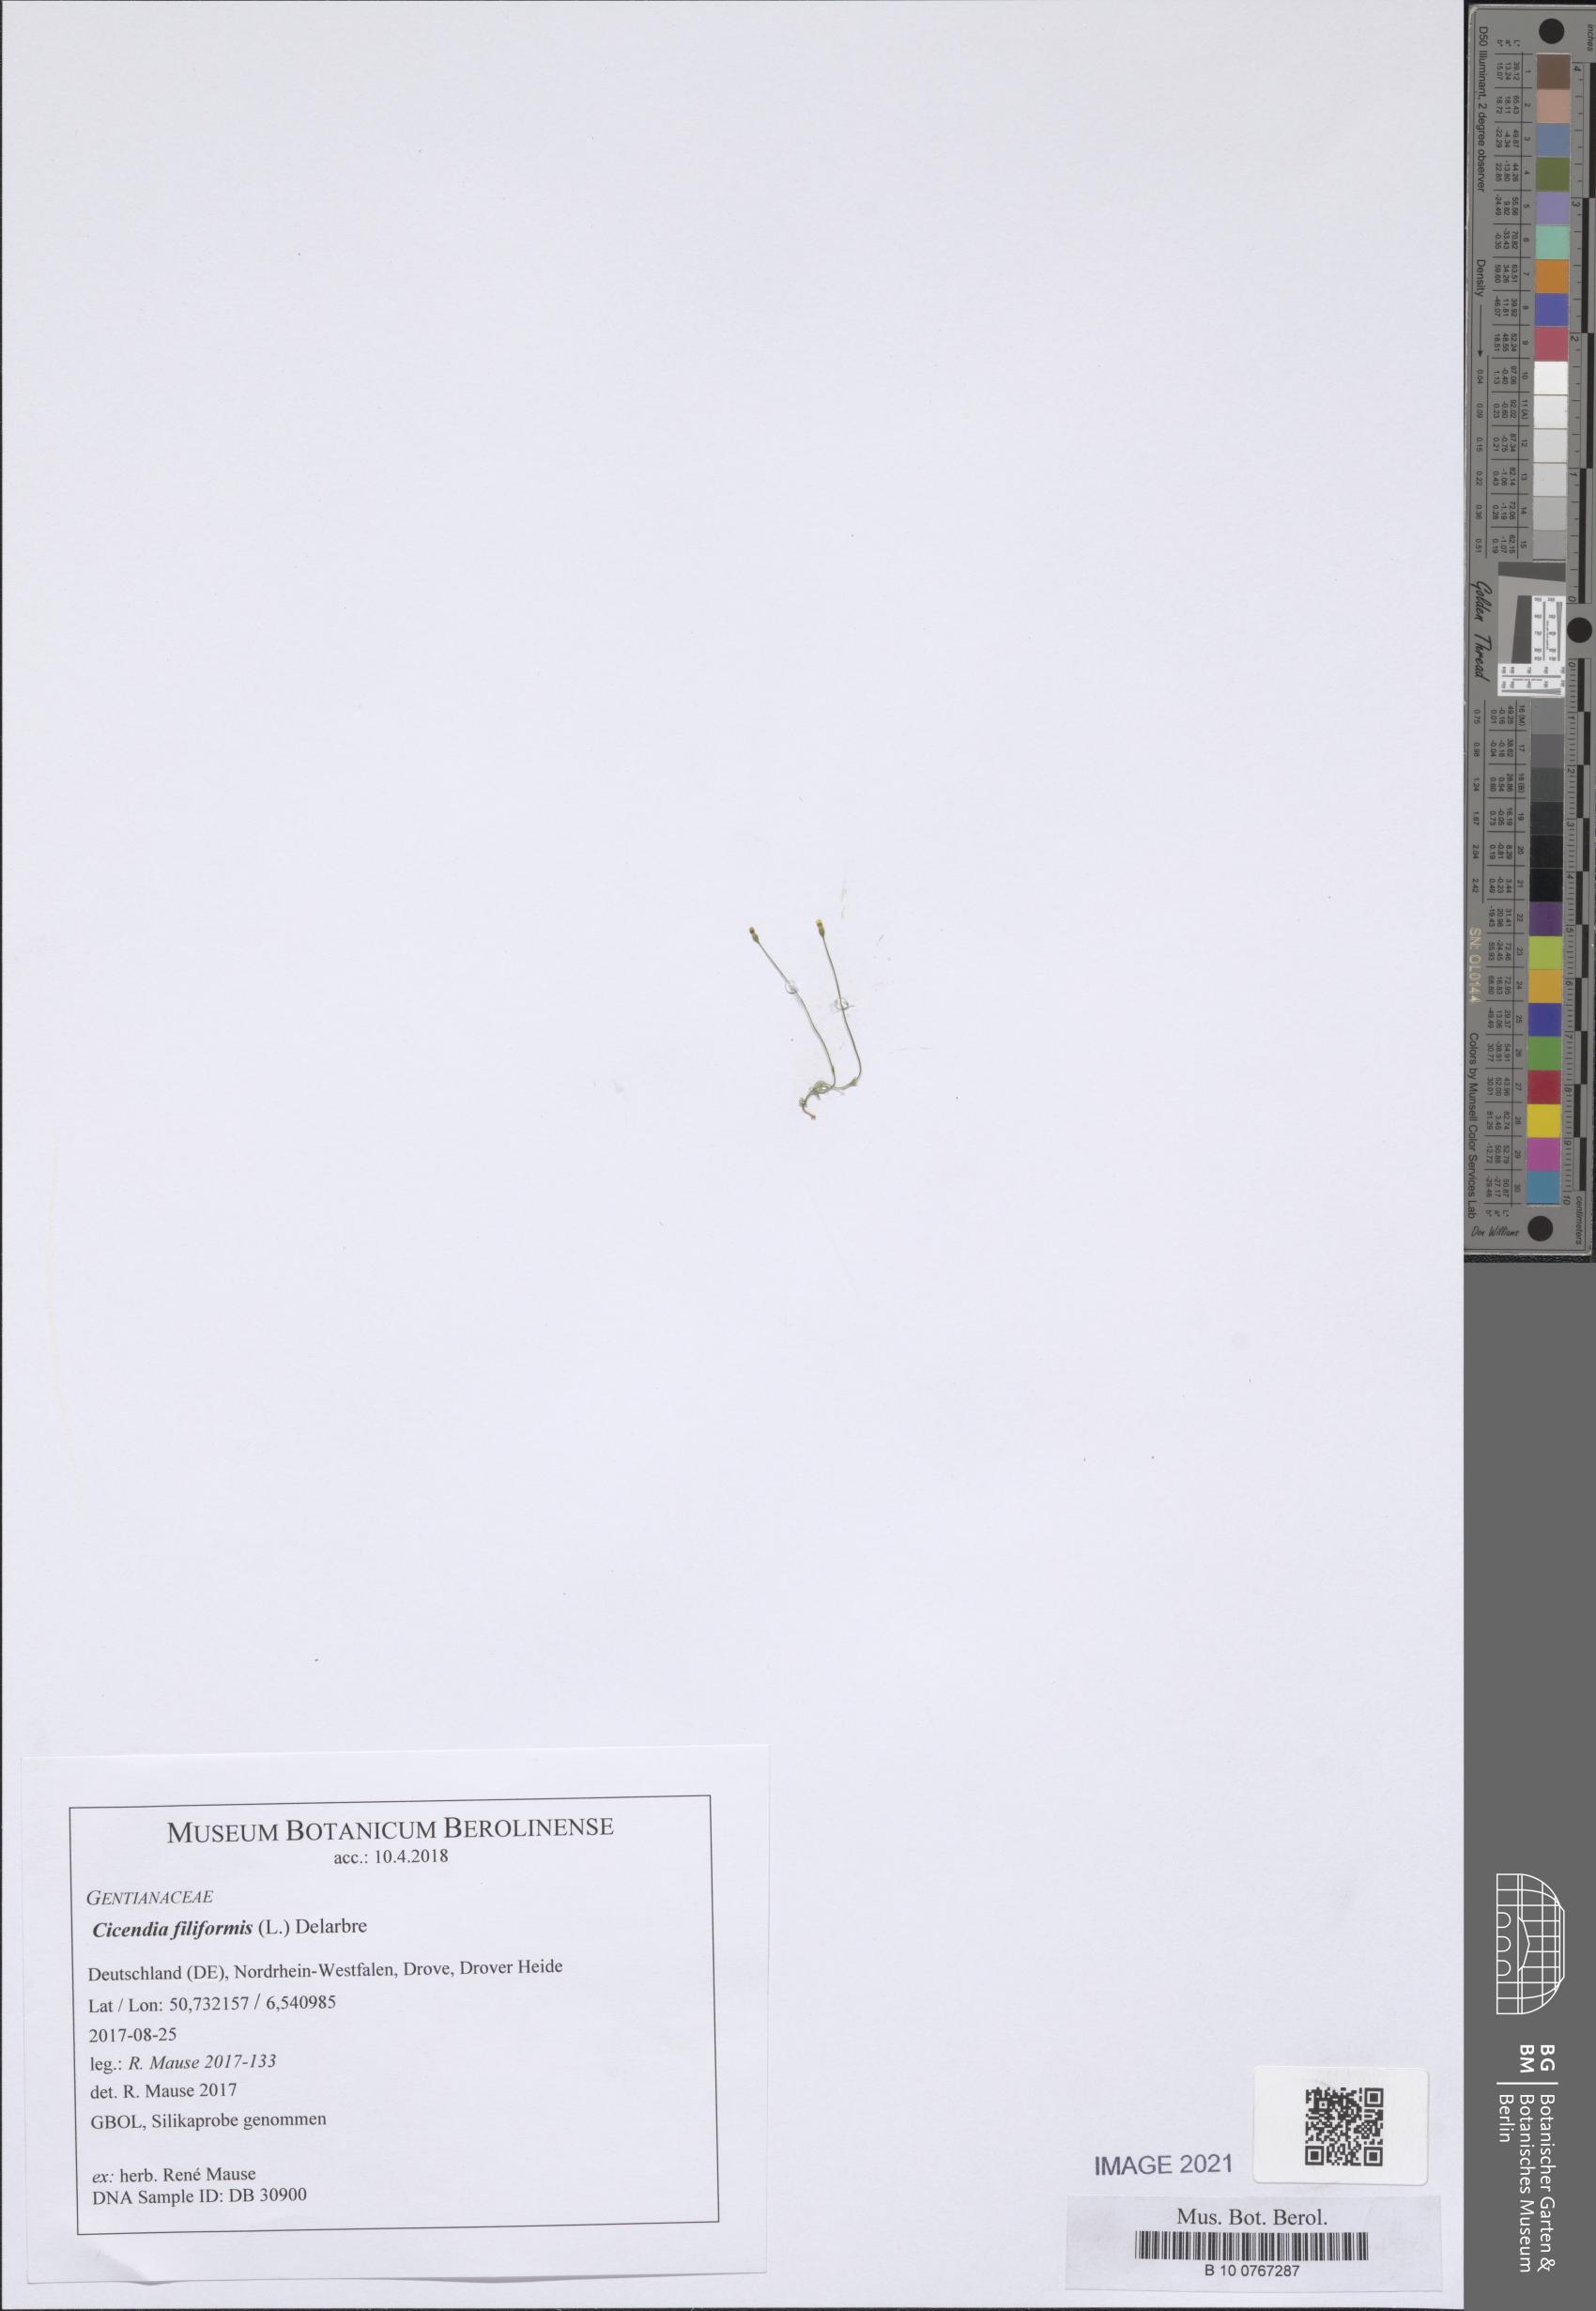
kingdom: Plantae
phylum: Tracheophyta
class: Magnoliopsida
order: Gentianales
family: Gentianaceae
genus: Cicendia
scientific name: Cicendia filiformis
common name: Yellow centaury
